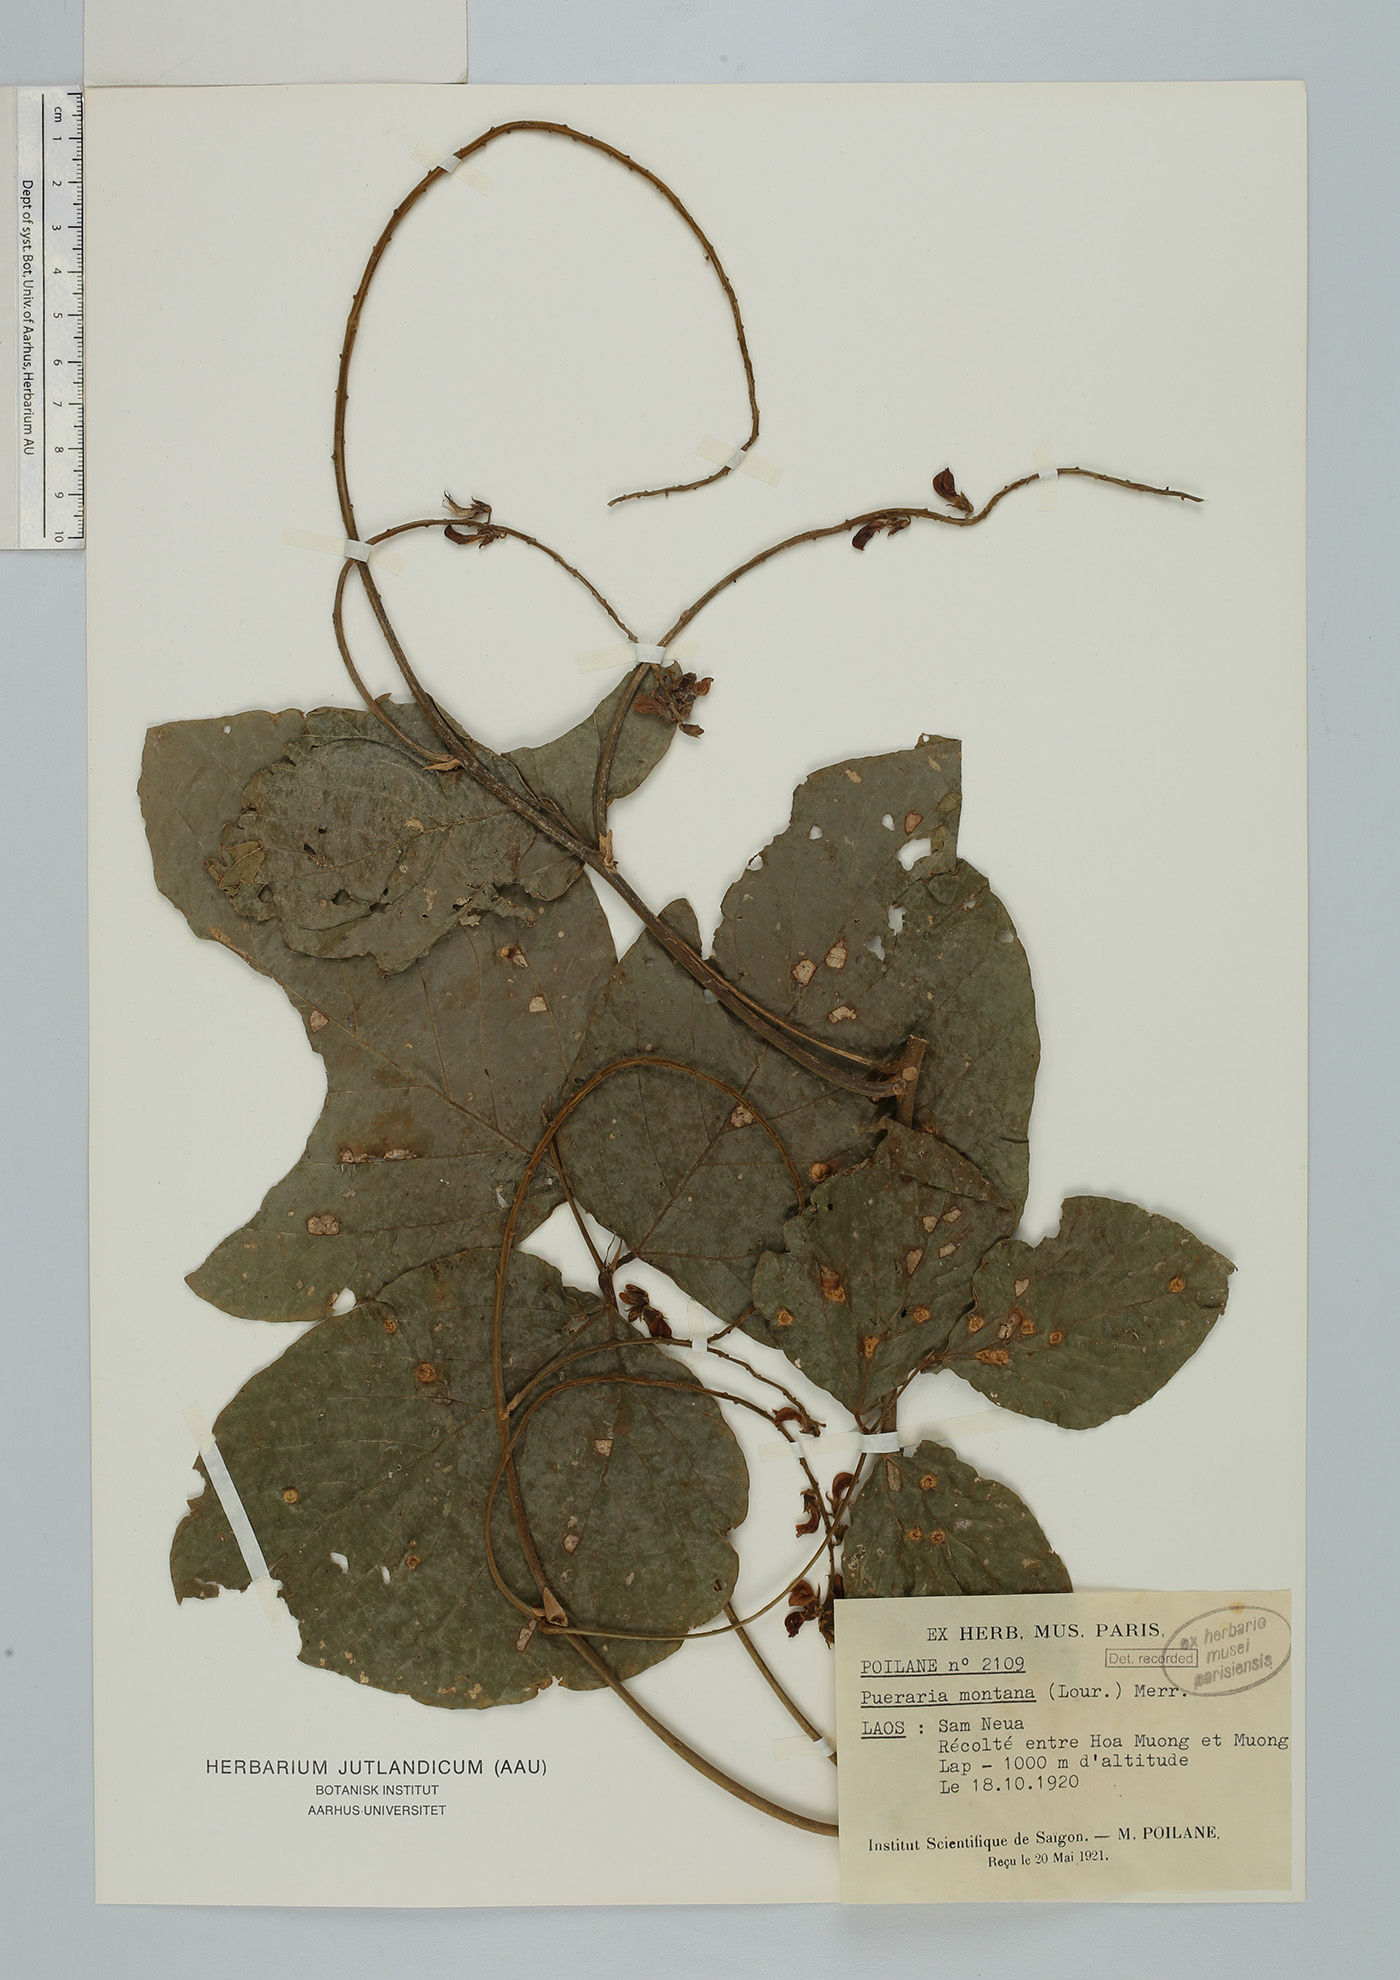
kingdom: Plantae
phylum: Tracheophyta
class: Magnoliopsida
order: Fabales
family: Fabaceae
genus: Pueraria
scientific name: Pueraria montana
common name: Kudzu
